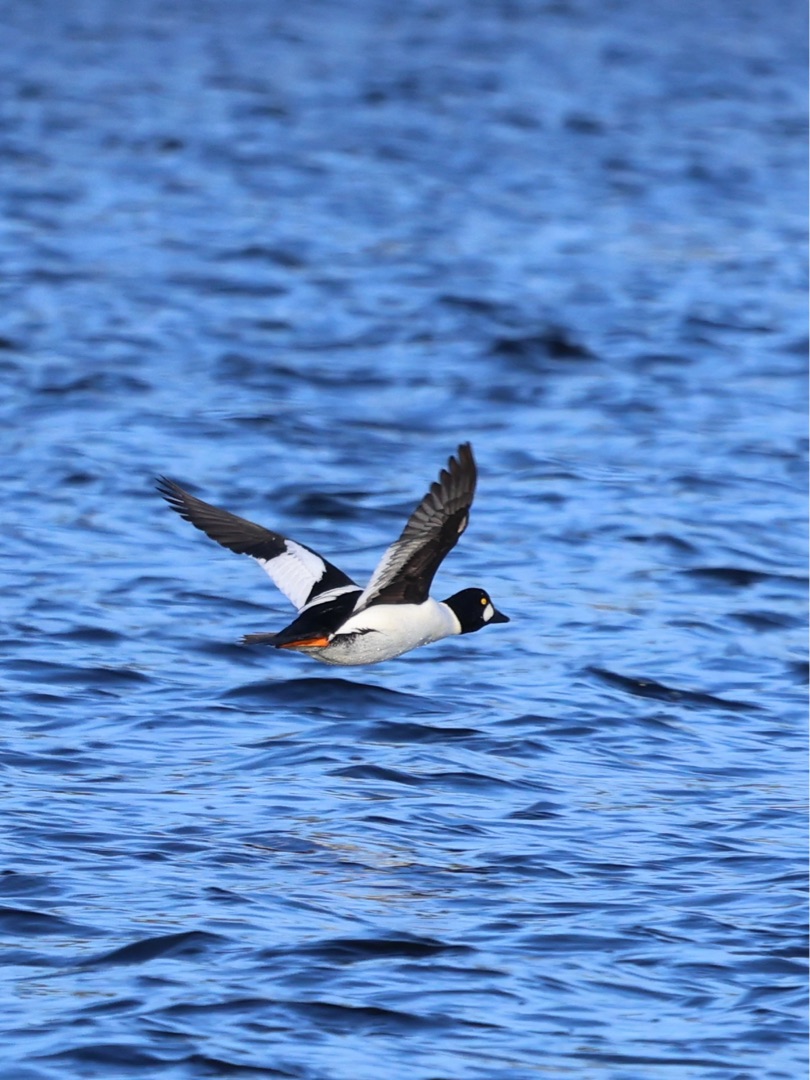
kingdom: Animalia
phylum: Chordata
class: Aves
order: Anseriformes
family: Anatidae
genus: Bucephala
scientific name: Bucephala clangula
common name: Hvinand
